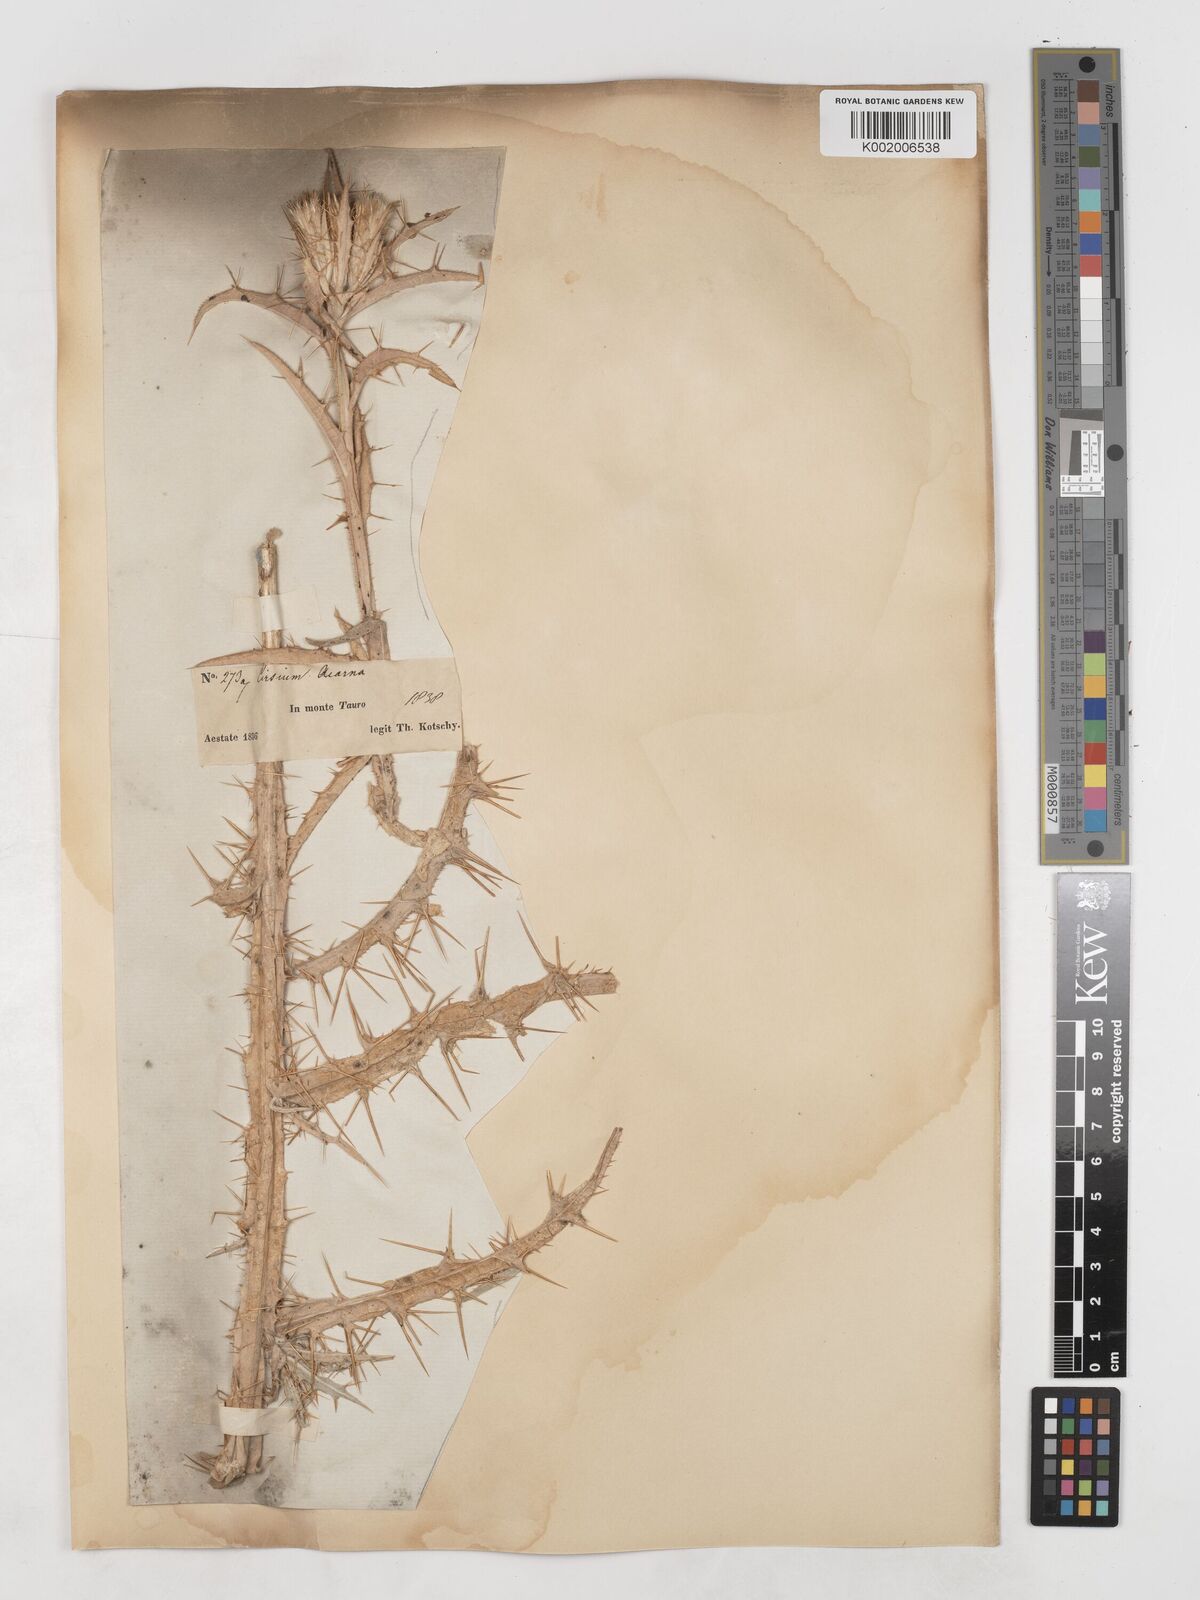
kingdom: Plantae
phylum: Tracheophyta
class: Magnoliopsida
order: Asterales
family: Asteraceae
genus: Picnomon
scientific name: Picnomon acarna
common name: Soldier thistle
